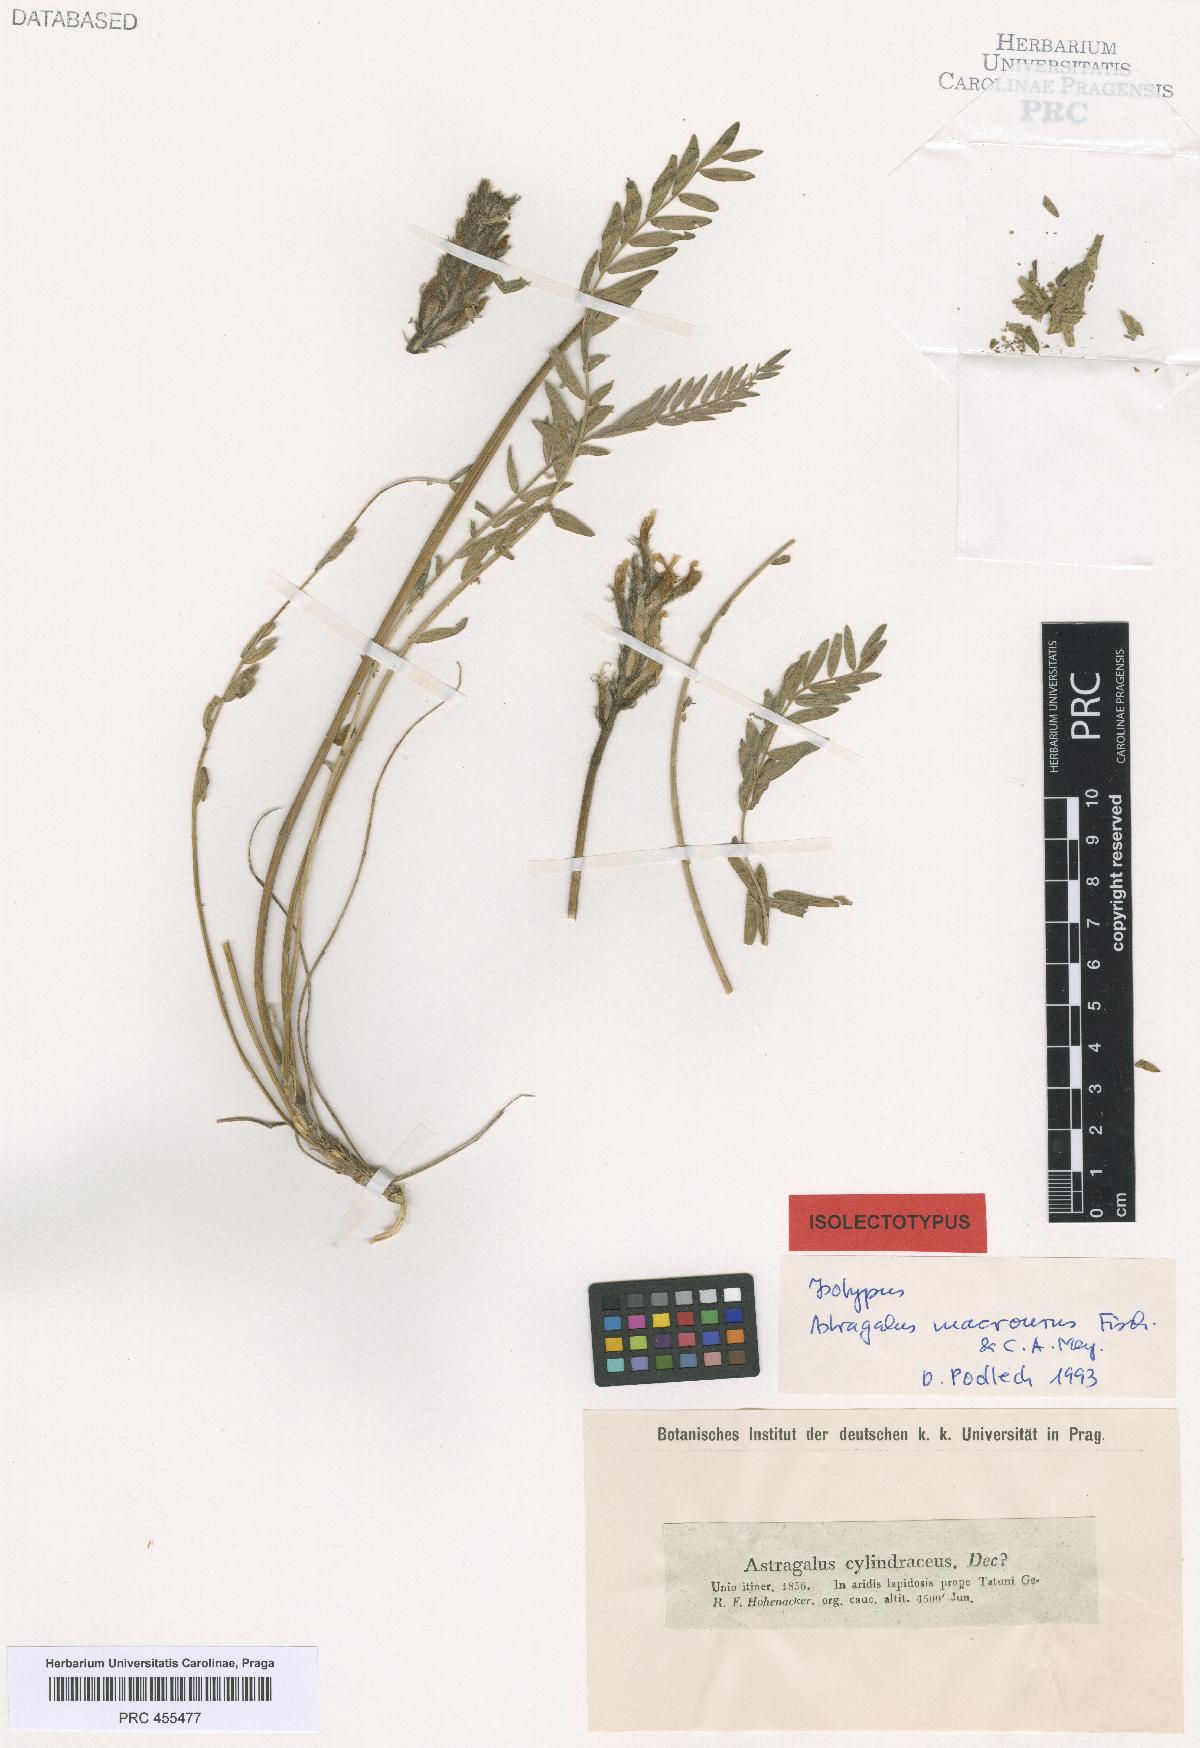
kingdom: Plantae
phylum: Tracheophyta
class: Magnoliopsida
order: Fabales
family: Fabaceae
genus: Astragalus
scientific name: Astragalus macrourus
